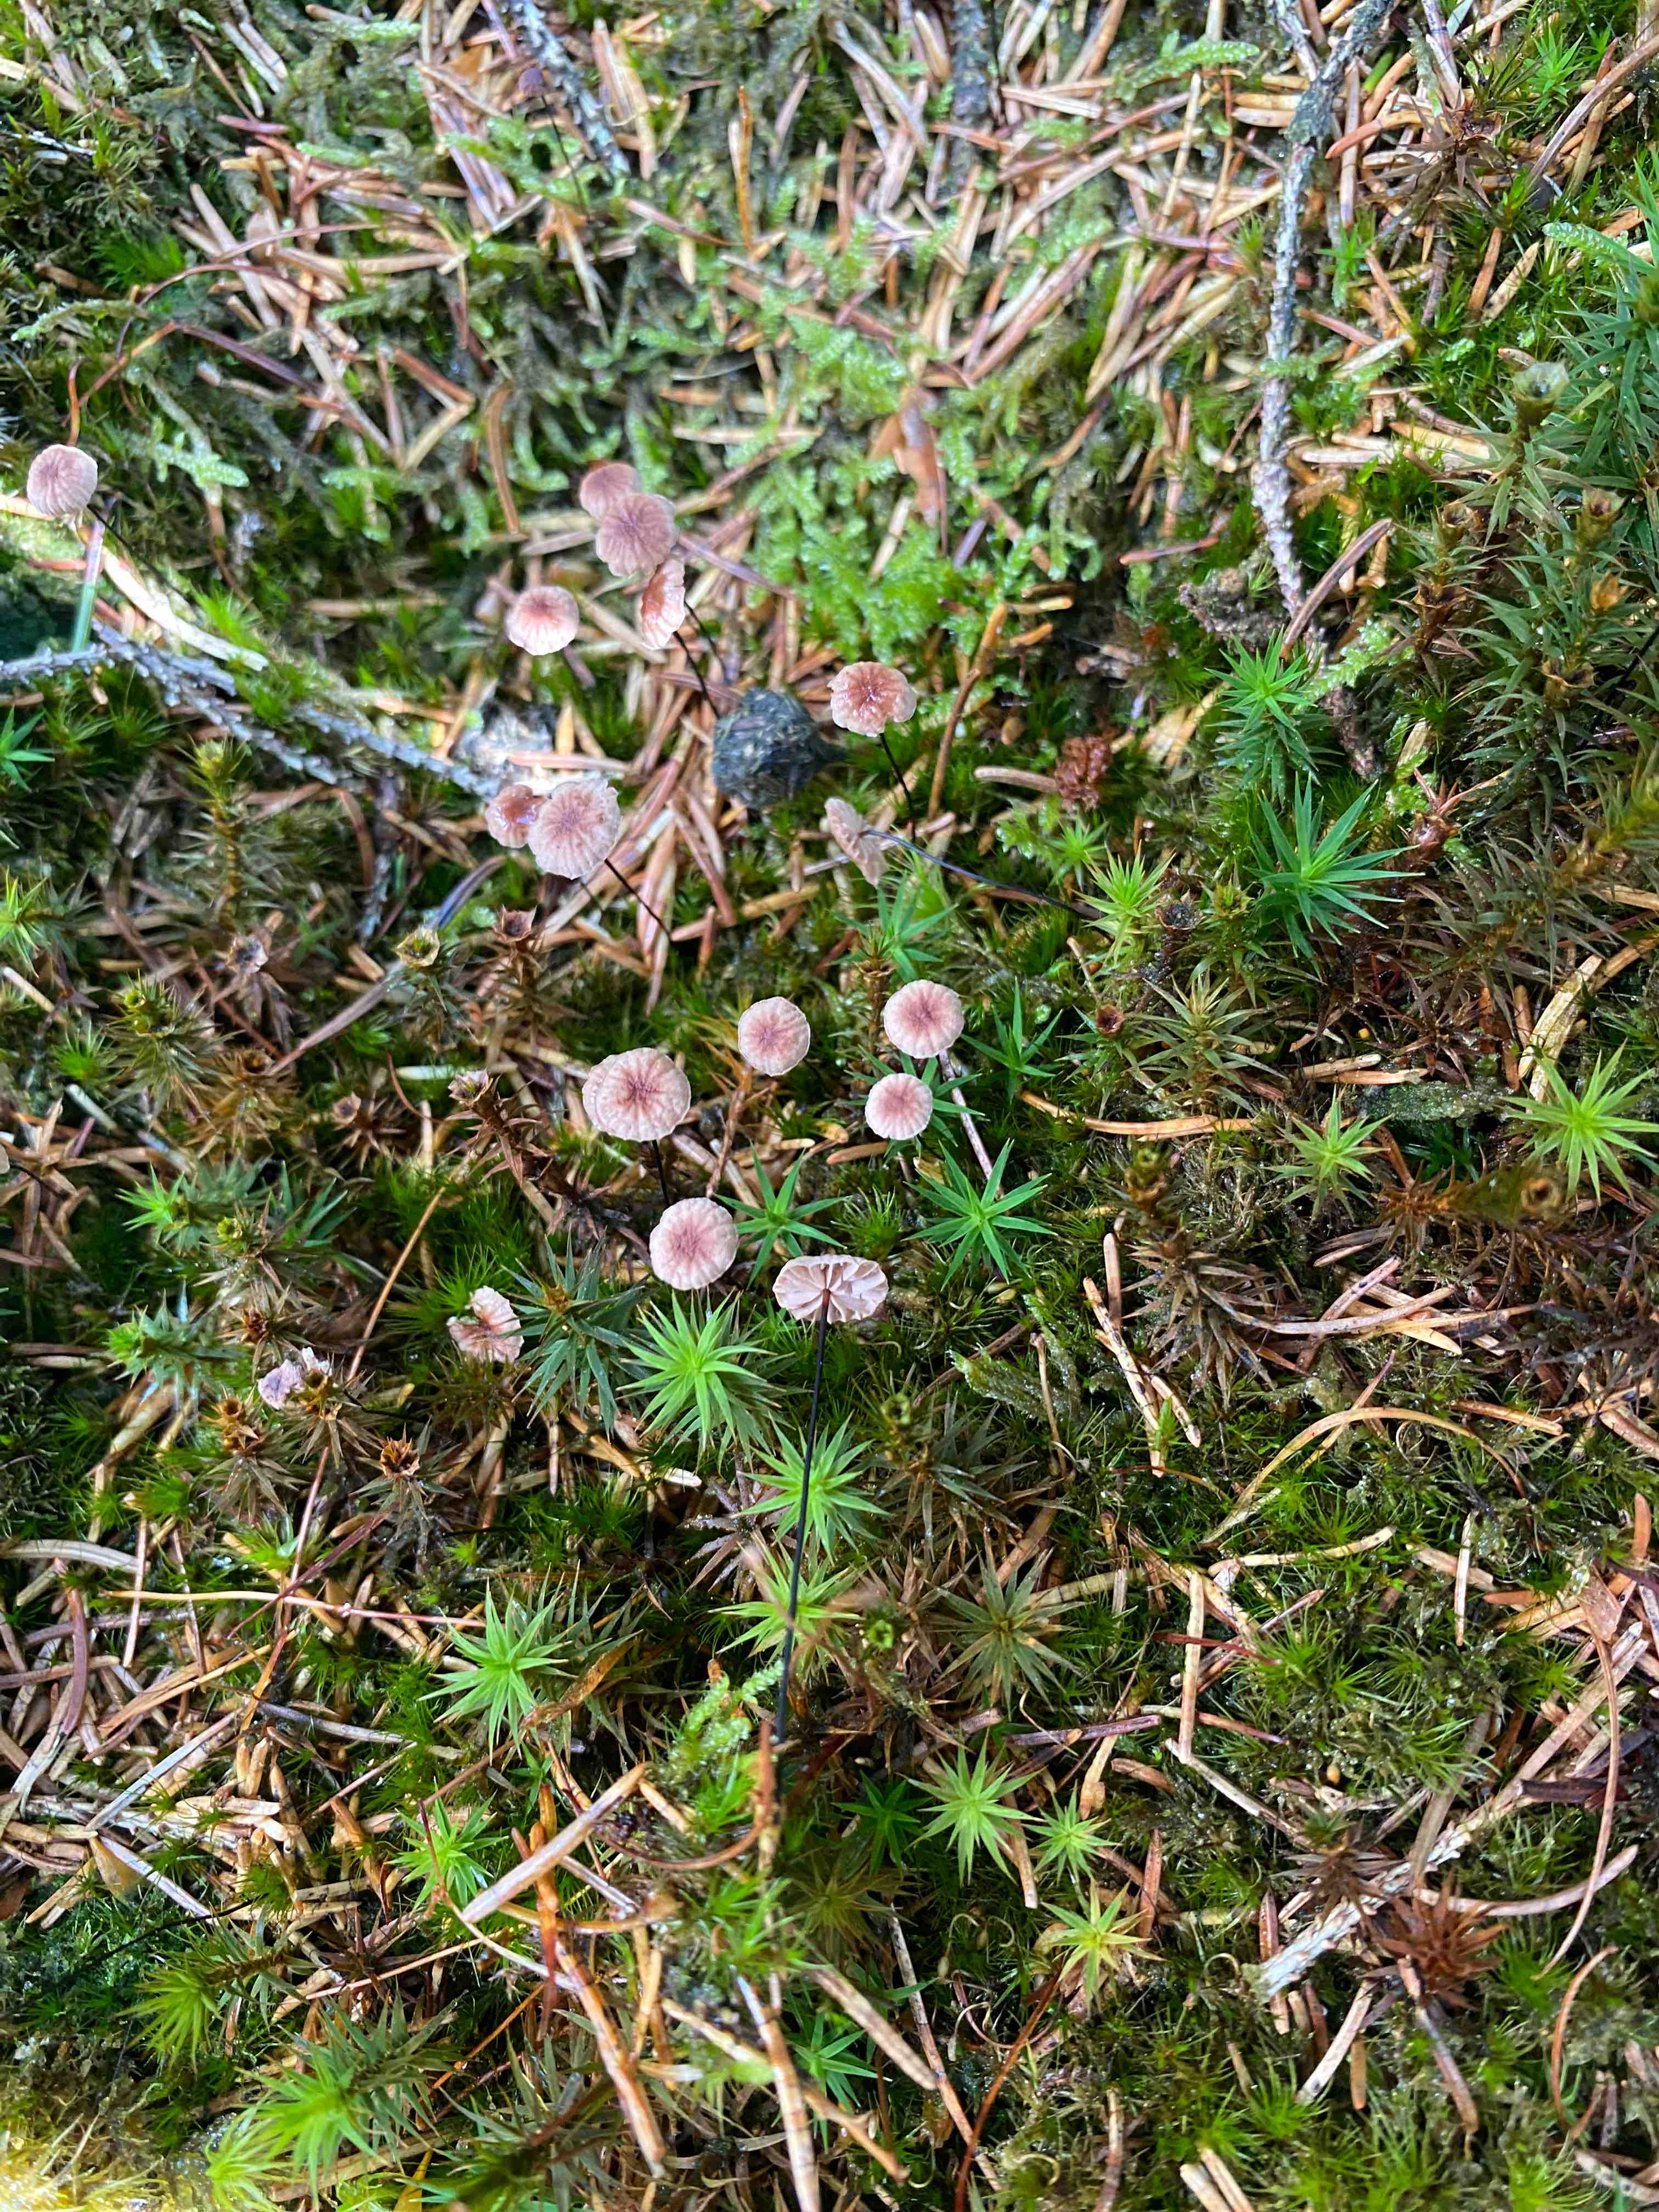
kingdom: Fungi
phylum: Basidiomycota
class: Agaricomycetes
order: Agaricales
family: Omphalotaceae
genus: Gymnopus
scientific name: Gymnopus androsaceus
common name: trådstokket fladhat
